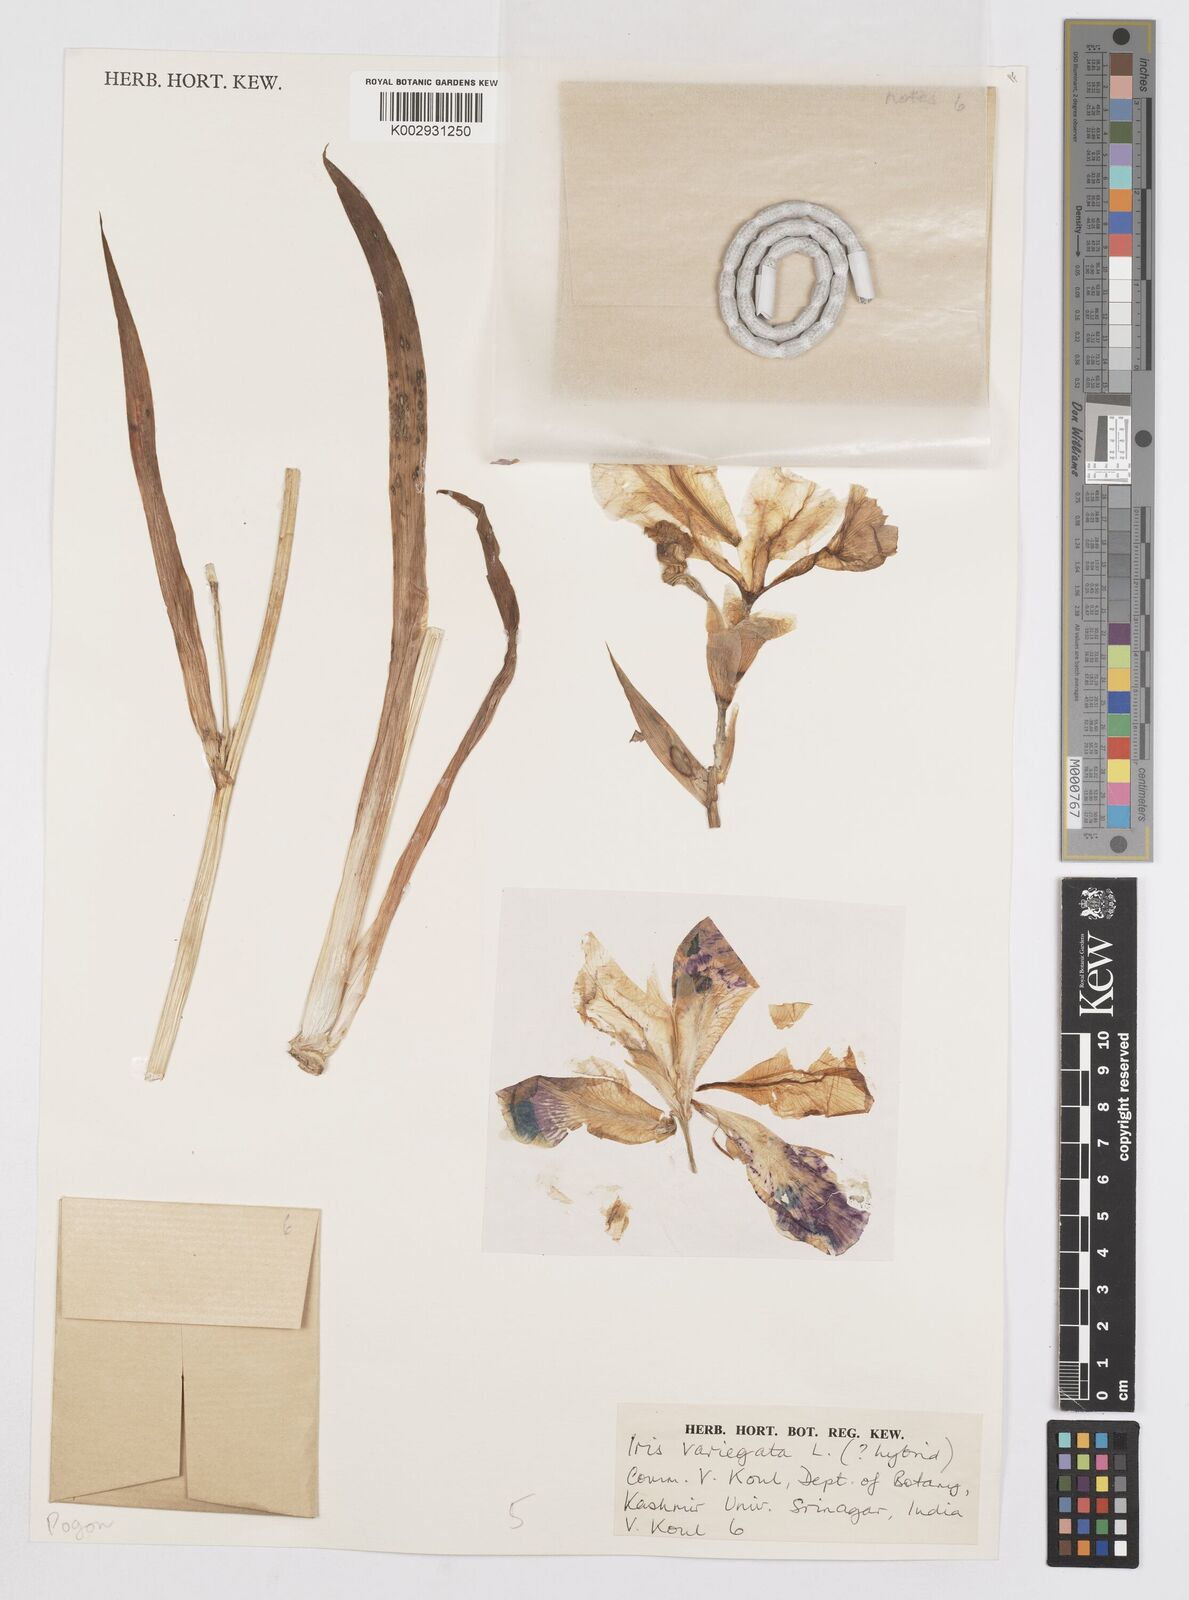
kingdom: Plantae
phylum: Tracheophyta
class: Liliopsida
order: Asparagales
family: Iridaceae
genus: Iris
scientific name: Iris variegata
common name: Hungarian iris
